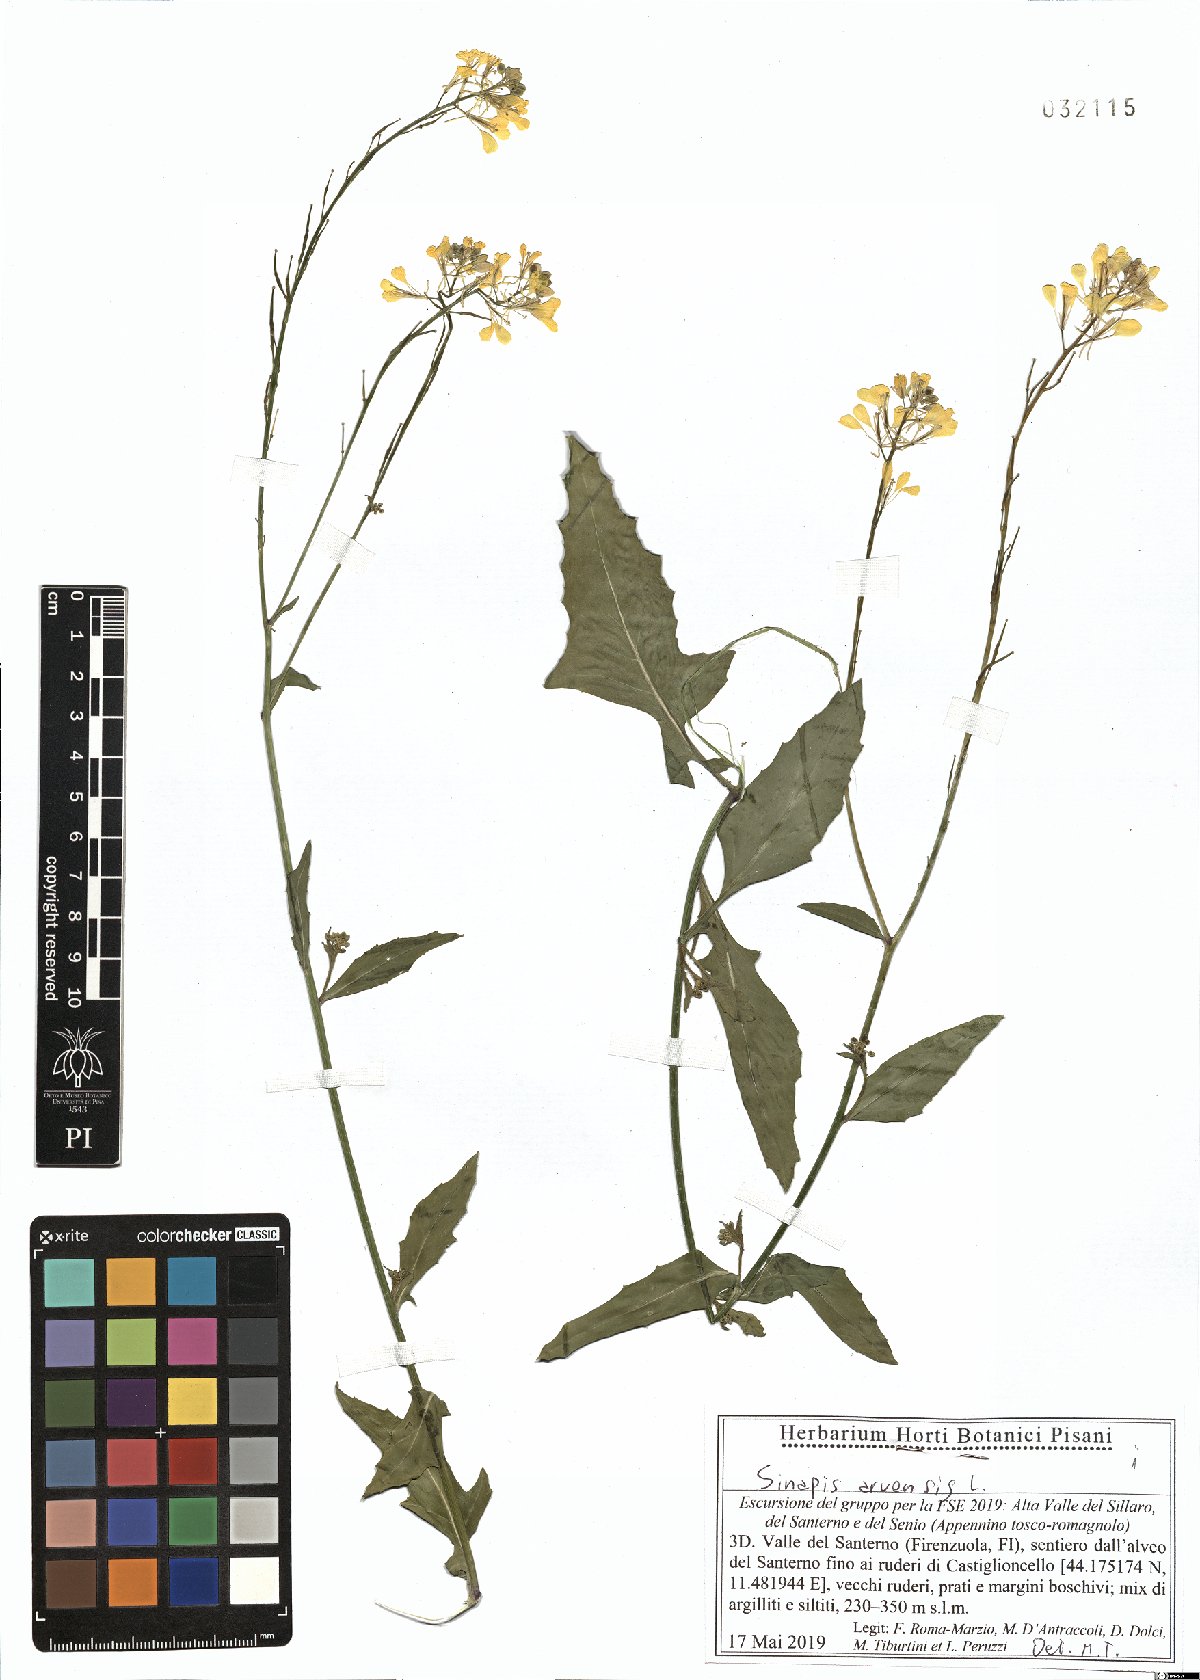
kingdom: Plantae
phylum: Tracheophyta
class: Magnoliopsida
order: Brassicales
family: Brassicaceae
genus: Sinapis
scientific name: Sinapis arvensis
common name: Charlock
